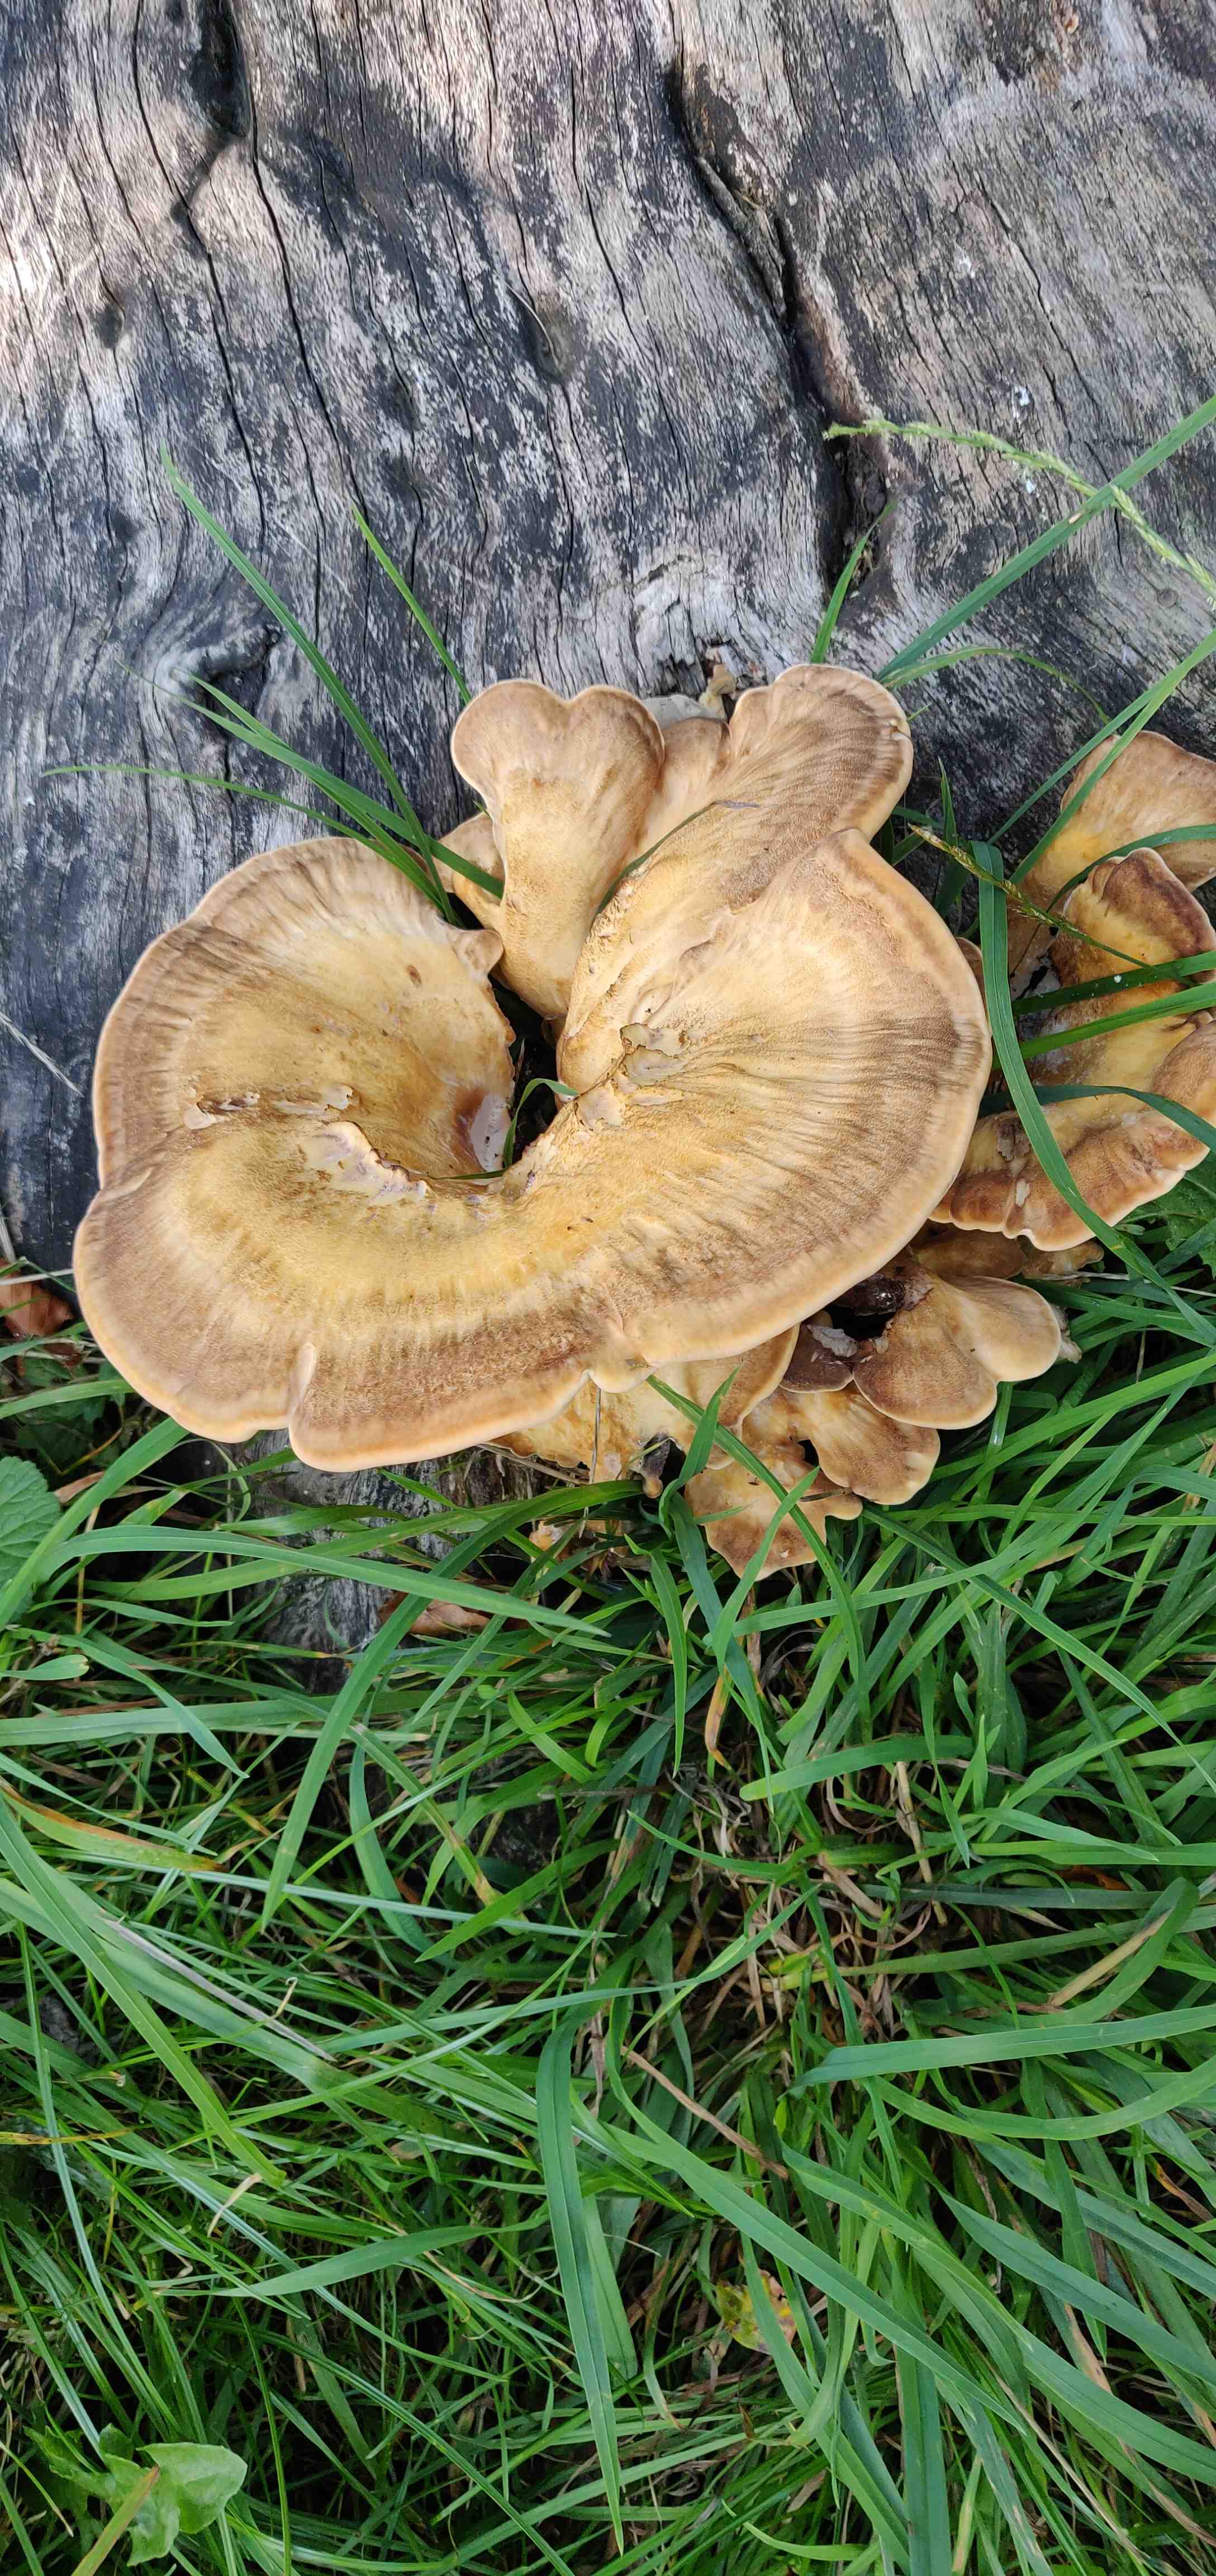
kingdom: Fungi
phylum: Basidiomycota
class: Agaricomycetes
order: Polyporales
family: Meripilaceae
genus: Meripilus
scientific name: Meripilus giganteus
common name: kæmpeporesvamp
